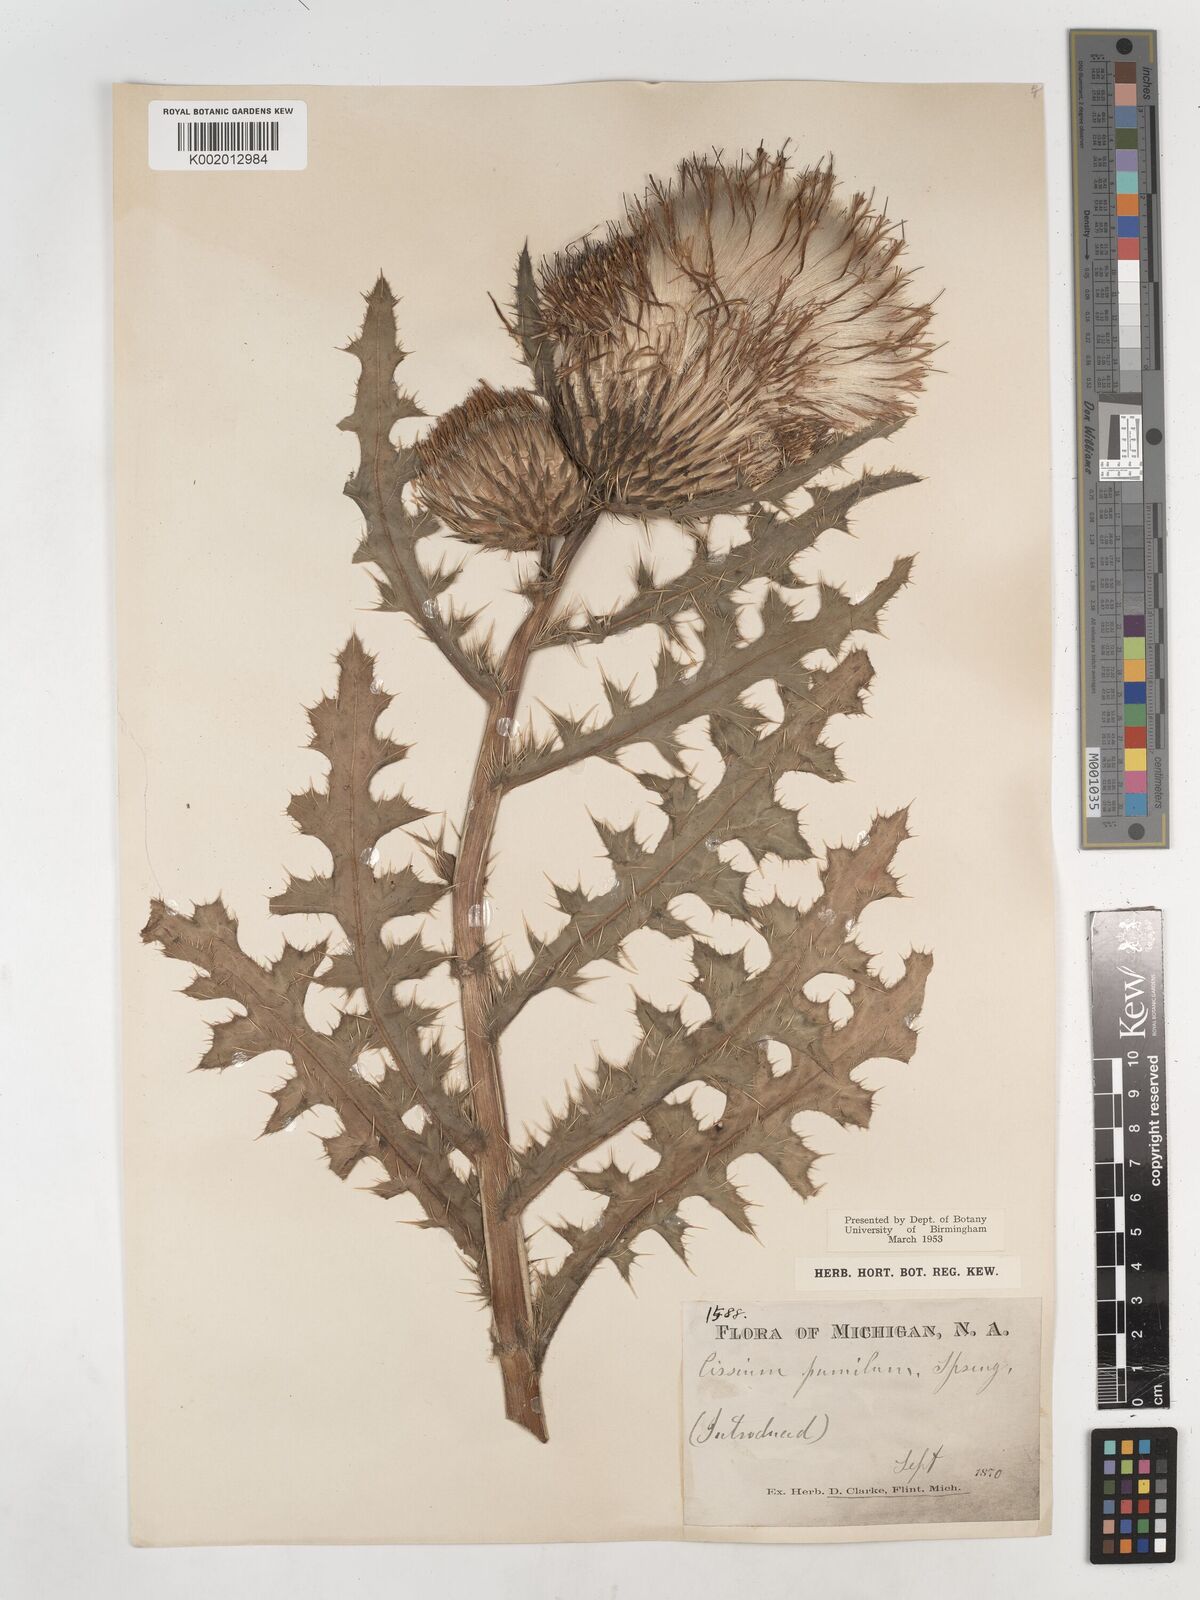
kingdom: Plantae
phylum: Tracheophyta
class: Magnoliopsida
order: Asterales
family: Asteraceae
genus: Cirsium
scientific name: Cirsium pumilum
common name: Pasture thistle
